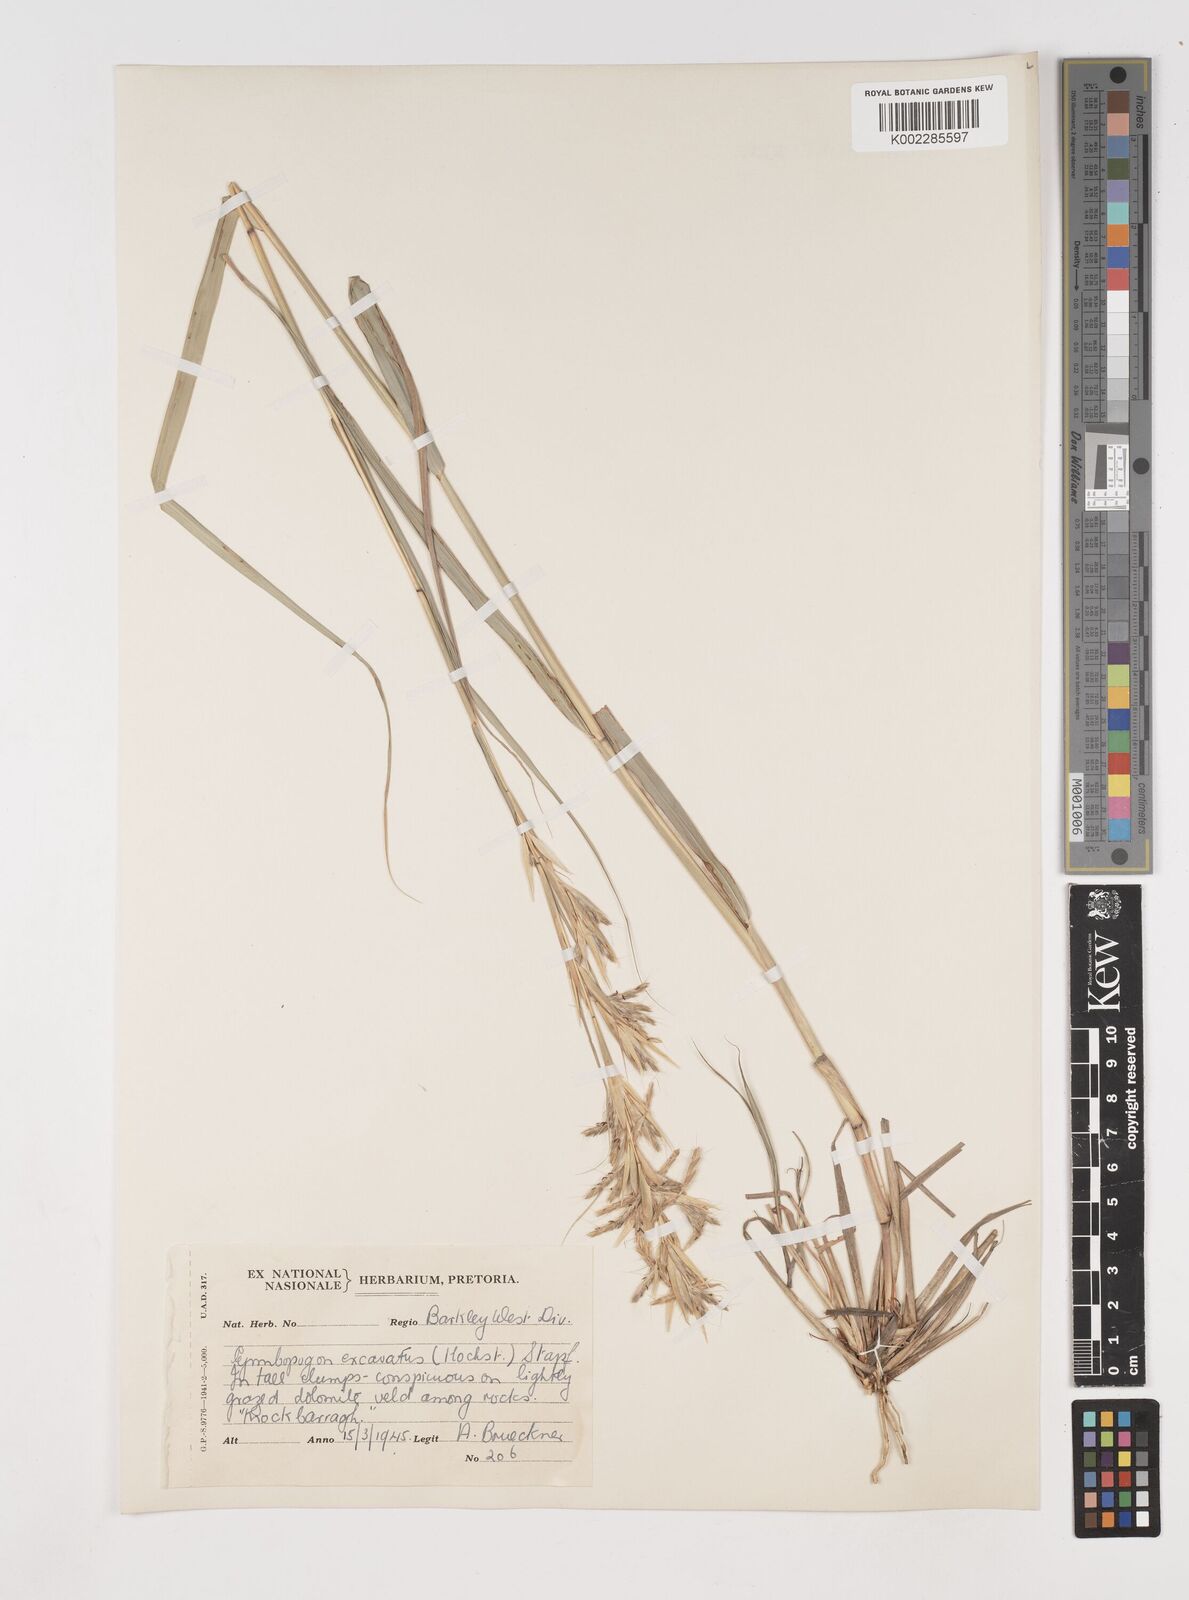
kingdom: Plantae
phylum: Tracheophyta
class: Liliopsida
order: Poales
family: Poaceae
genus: Cymbopogon
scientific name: Cymbopogon caesius
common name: Kachi grass
